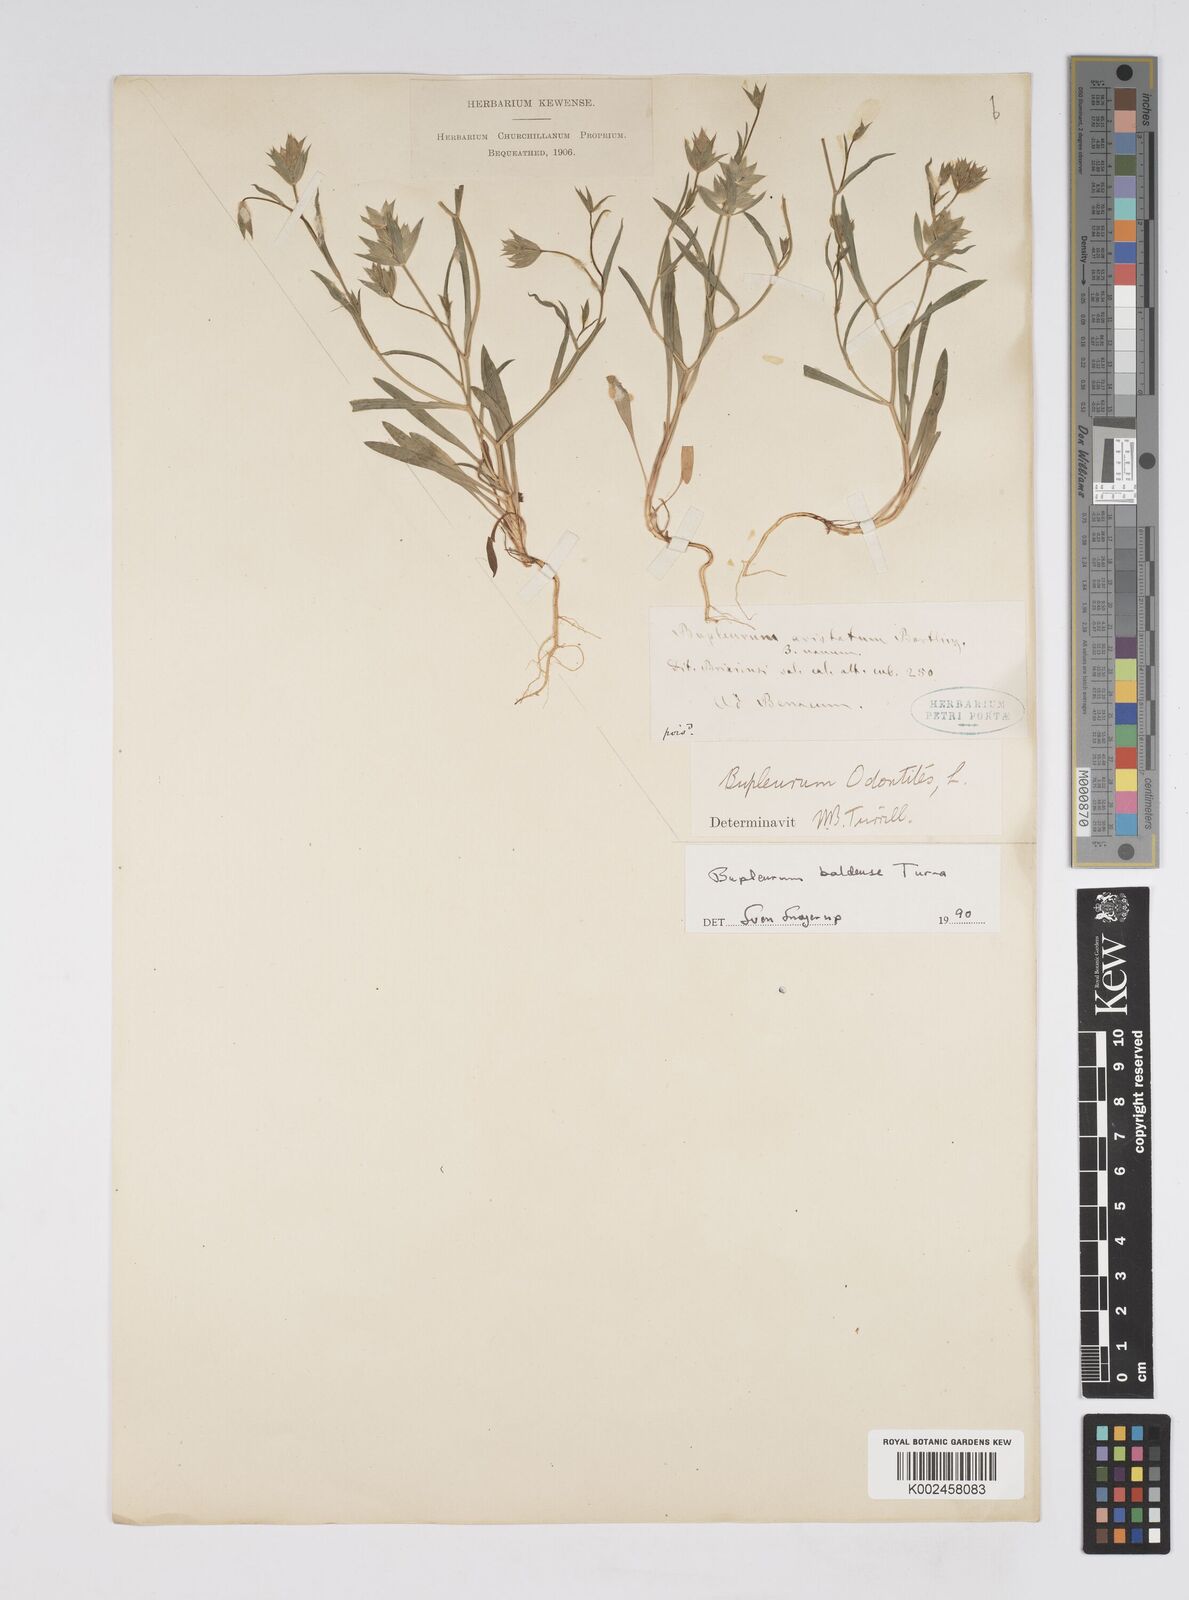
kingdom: Plantae
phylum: Tracheophyta
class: Magnoliopsida
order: Apiales
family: Apiaceae
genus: Bupleurum
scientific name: Bupleurum baldense
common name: Small hare's-ear
